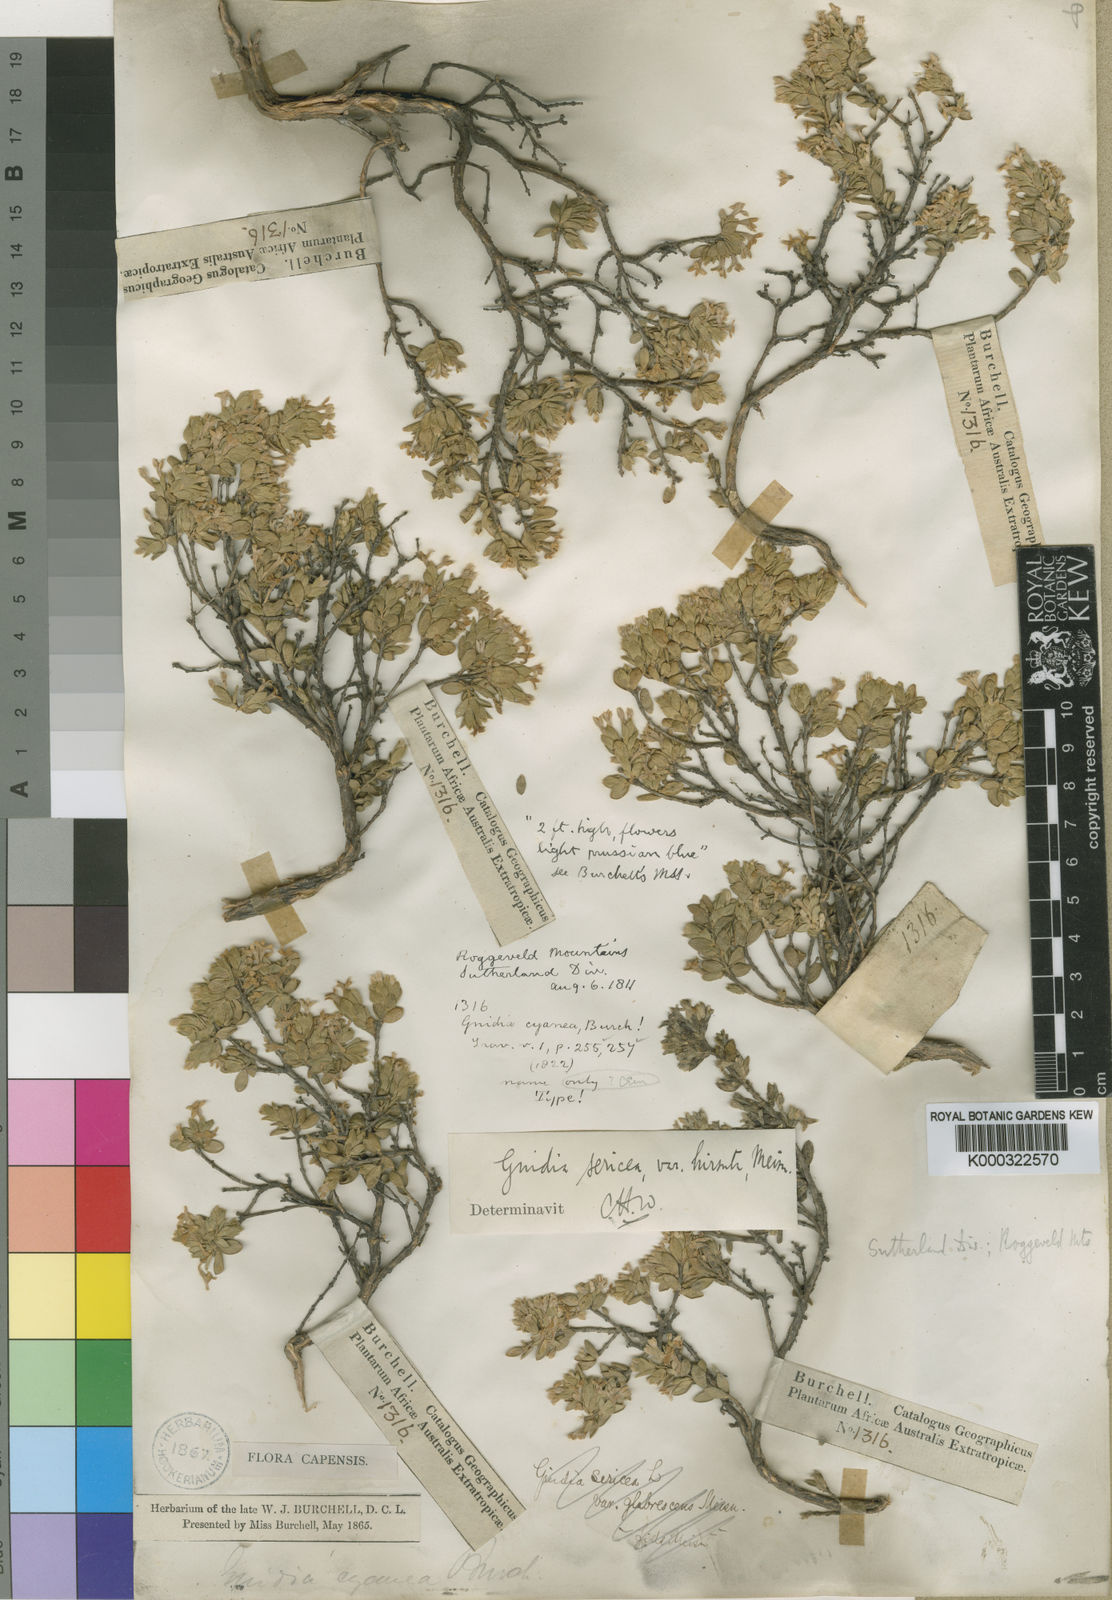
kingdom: Plantae
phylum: Tracheophyta
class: Magnoliopsida
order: Malvales
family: Thymelaeaceae
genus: Gnidia
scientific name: Gnidia
